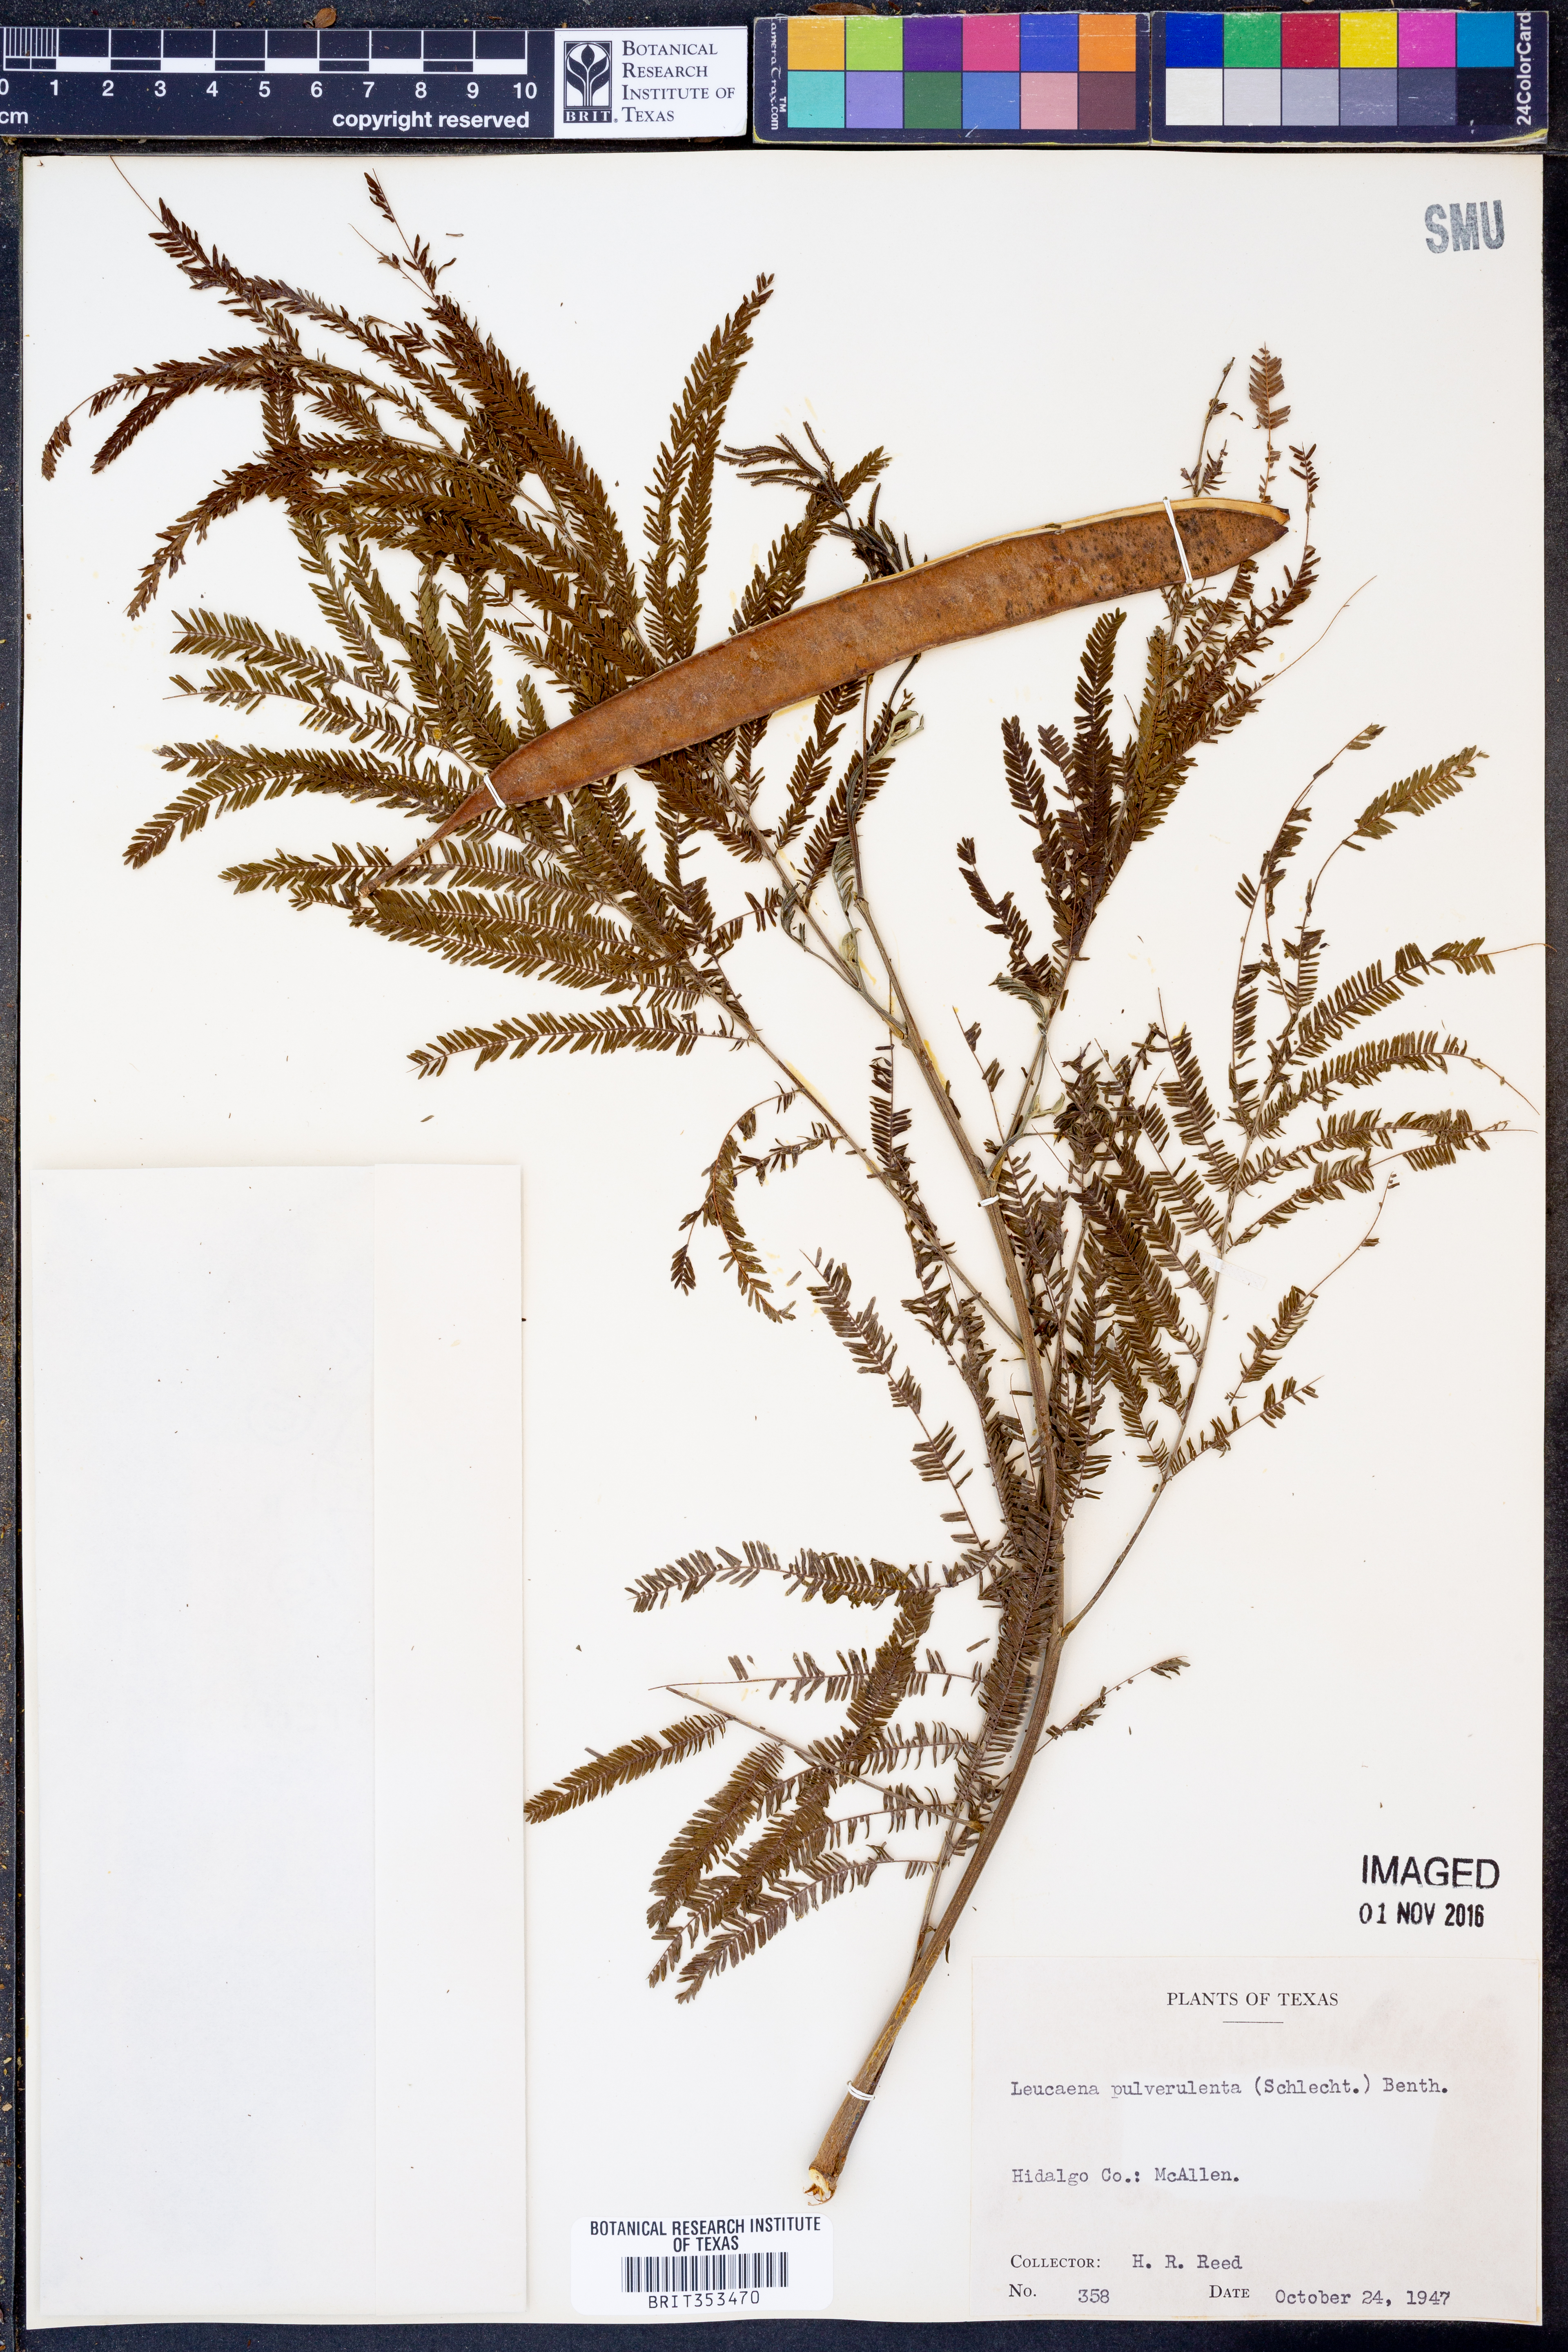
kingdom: Plantae
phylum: Tracheophyta
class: Magnoliopsida
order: Fabales
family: Fabaceae
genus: Leucaena
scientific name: Leucaena pulverulenta
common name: Great leadtree
